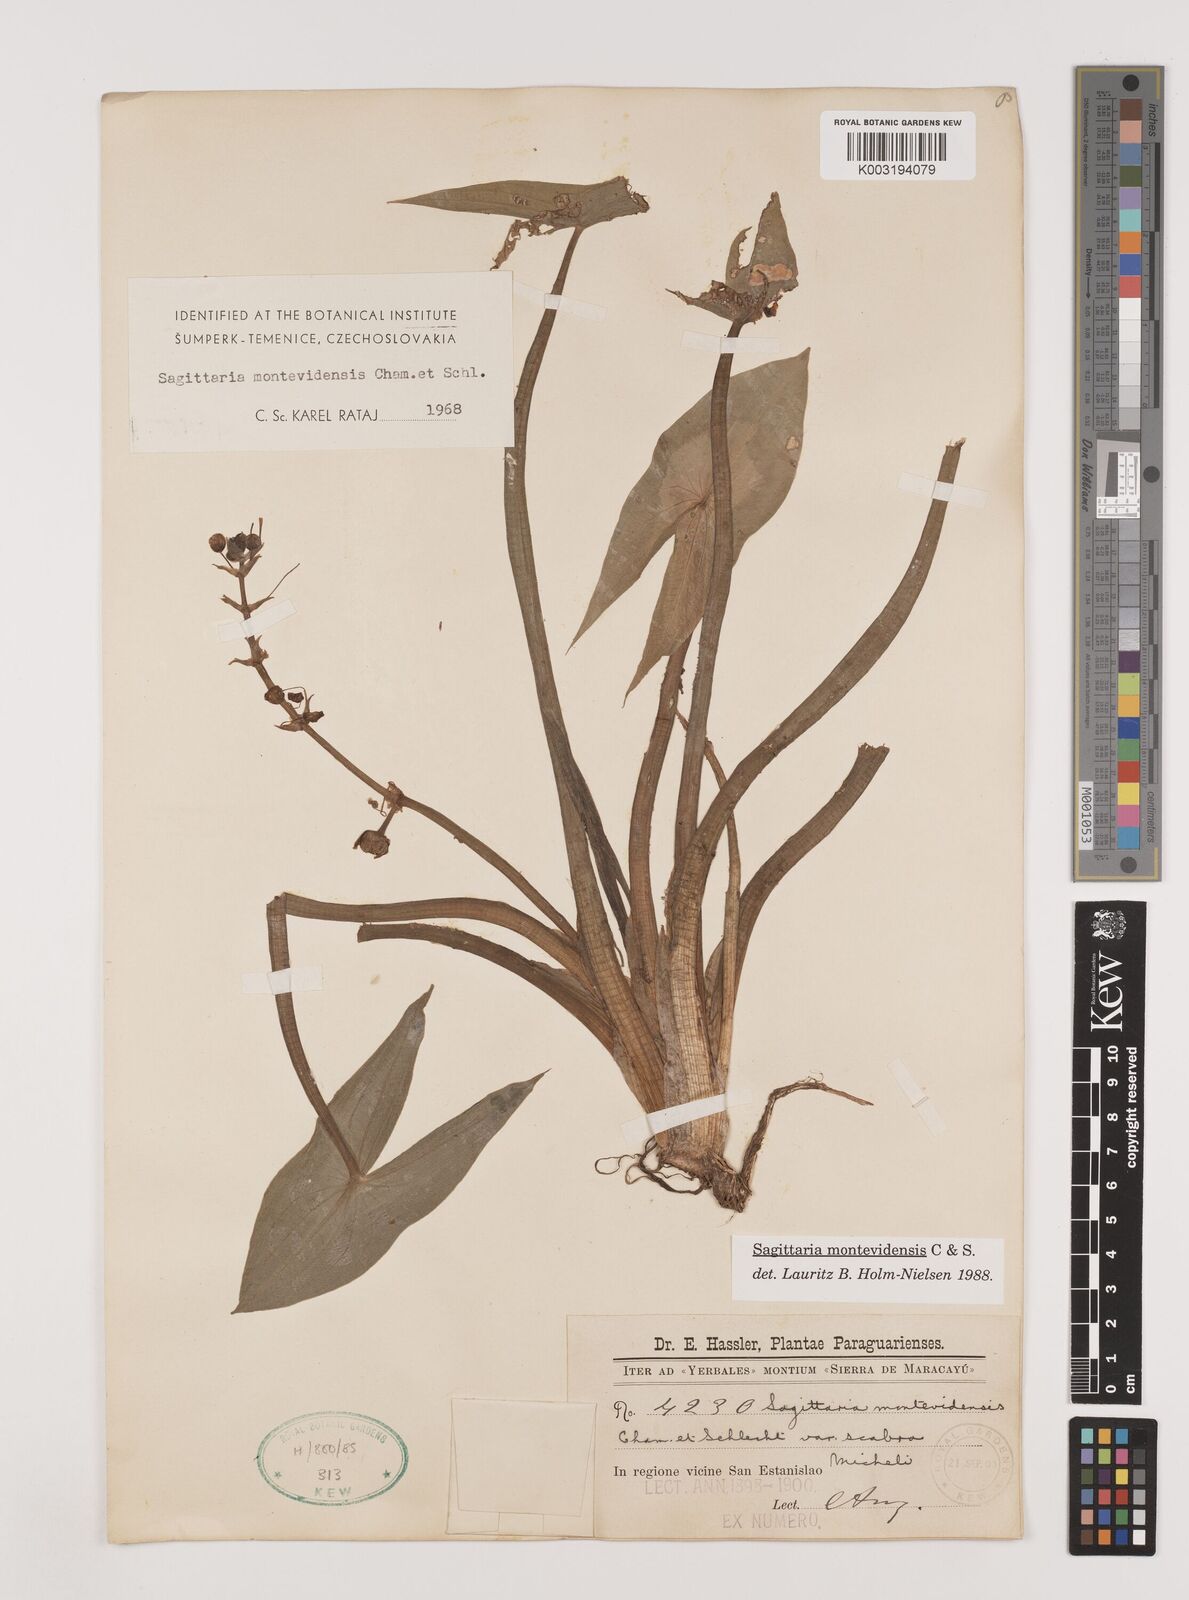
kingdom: Plantae
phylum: Tracheophyta
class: Liliopsida
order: Alismatales
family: Alismataceae
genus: Sagittaria
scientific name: Sagittaria montevidensis
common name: Giant arrowhead
